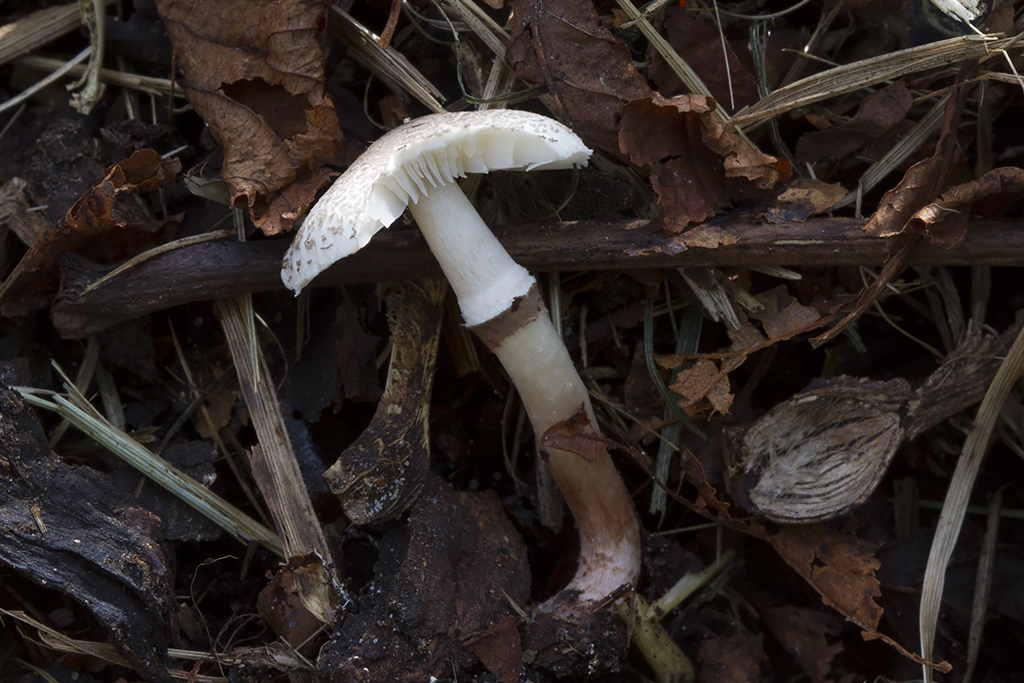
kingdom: Fungi
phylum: Basidiomycota
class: Agaricomycetes
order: Agaricales
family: Agaricaceae
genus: Lepiota
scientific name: Lepiota lilacea
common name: lillabrun parasolhat
